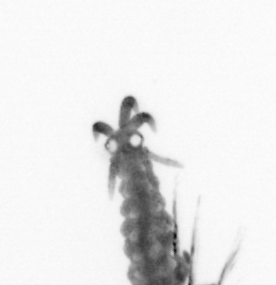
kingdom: Animalia
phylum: Annelida
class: Polychaeta
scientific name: Polychaeta
